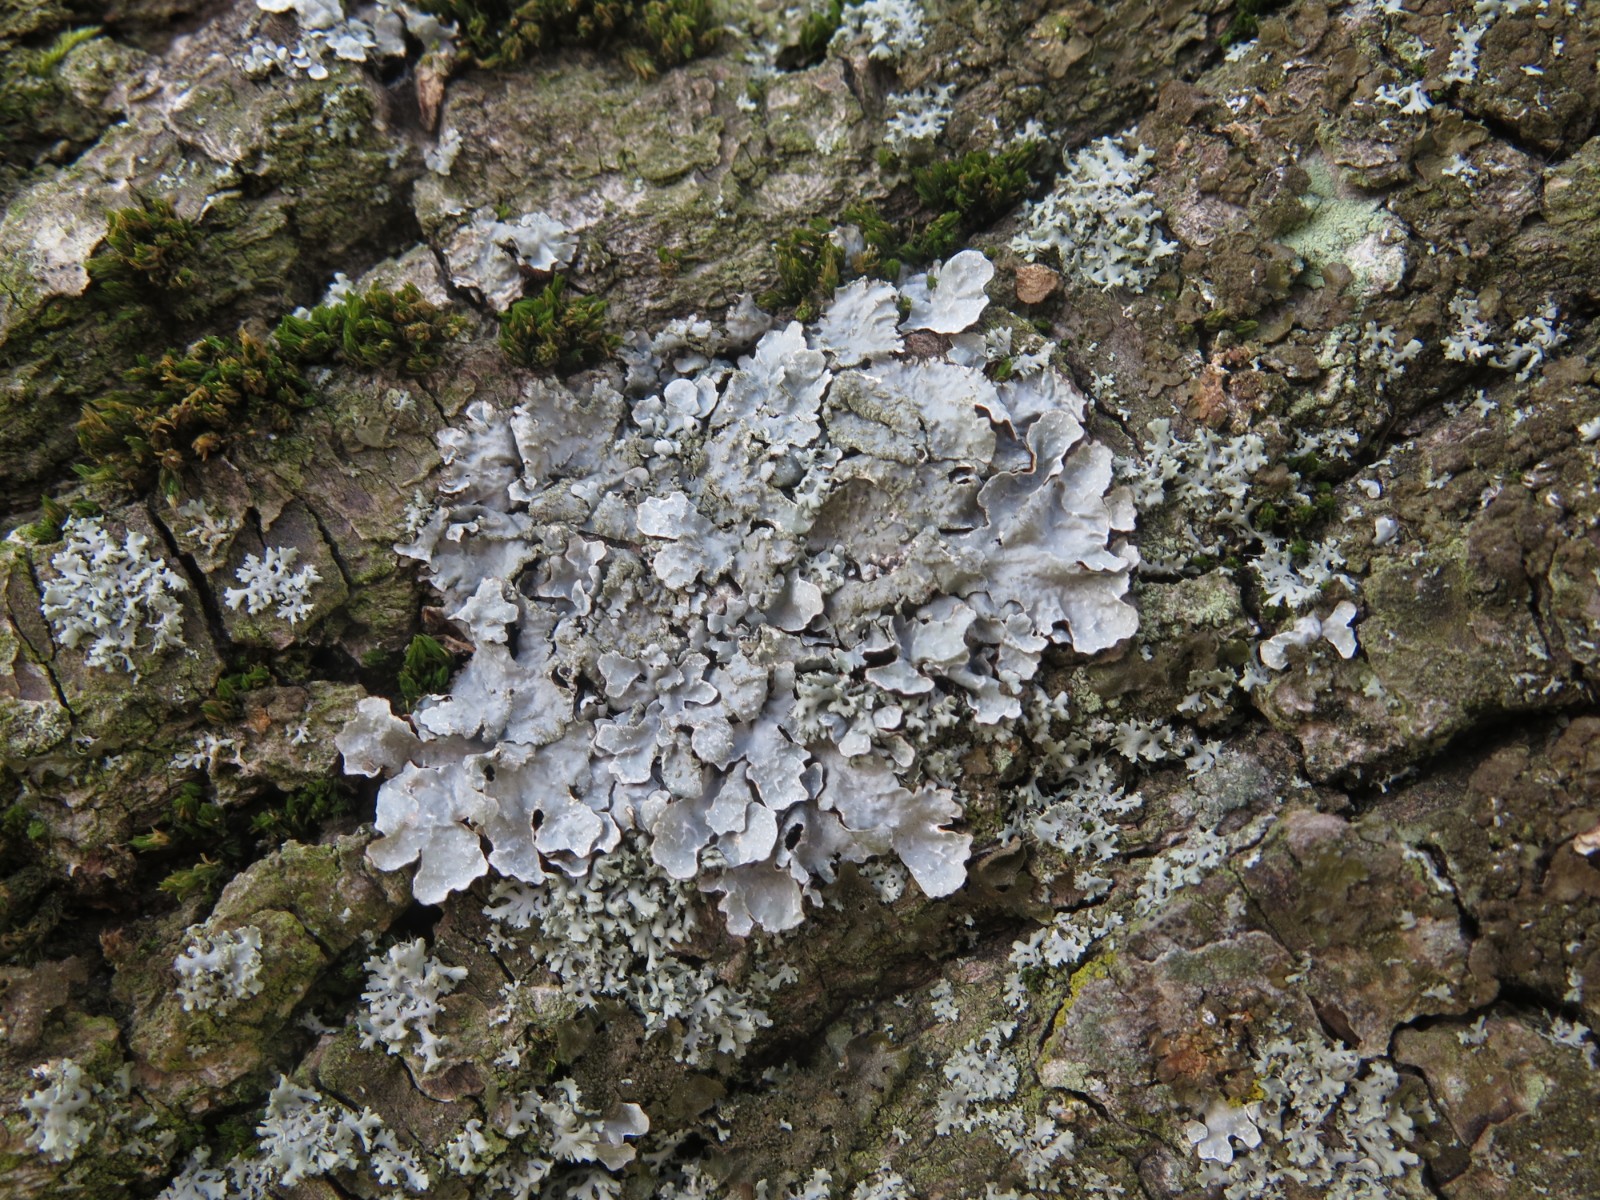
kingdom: Fungi
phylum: Ascomycota
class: Lecanoromycetes
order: Lecanorales
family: Parmeliaceae
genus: Parmelia
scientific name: Parmelia sulcata
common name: rynket skållav
